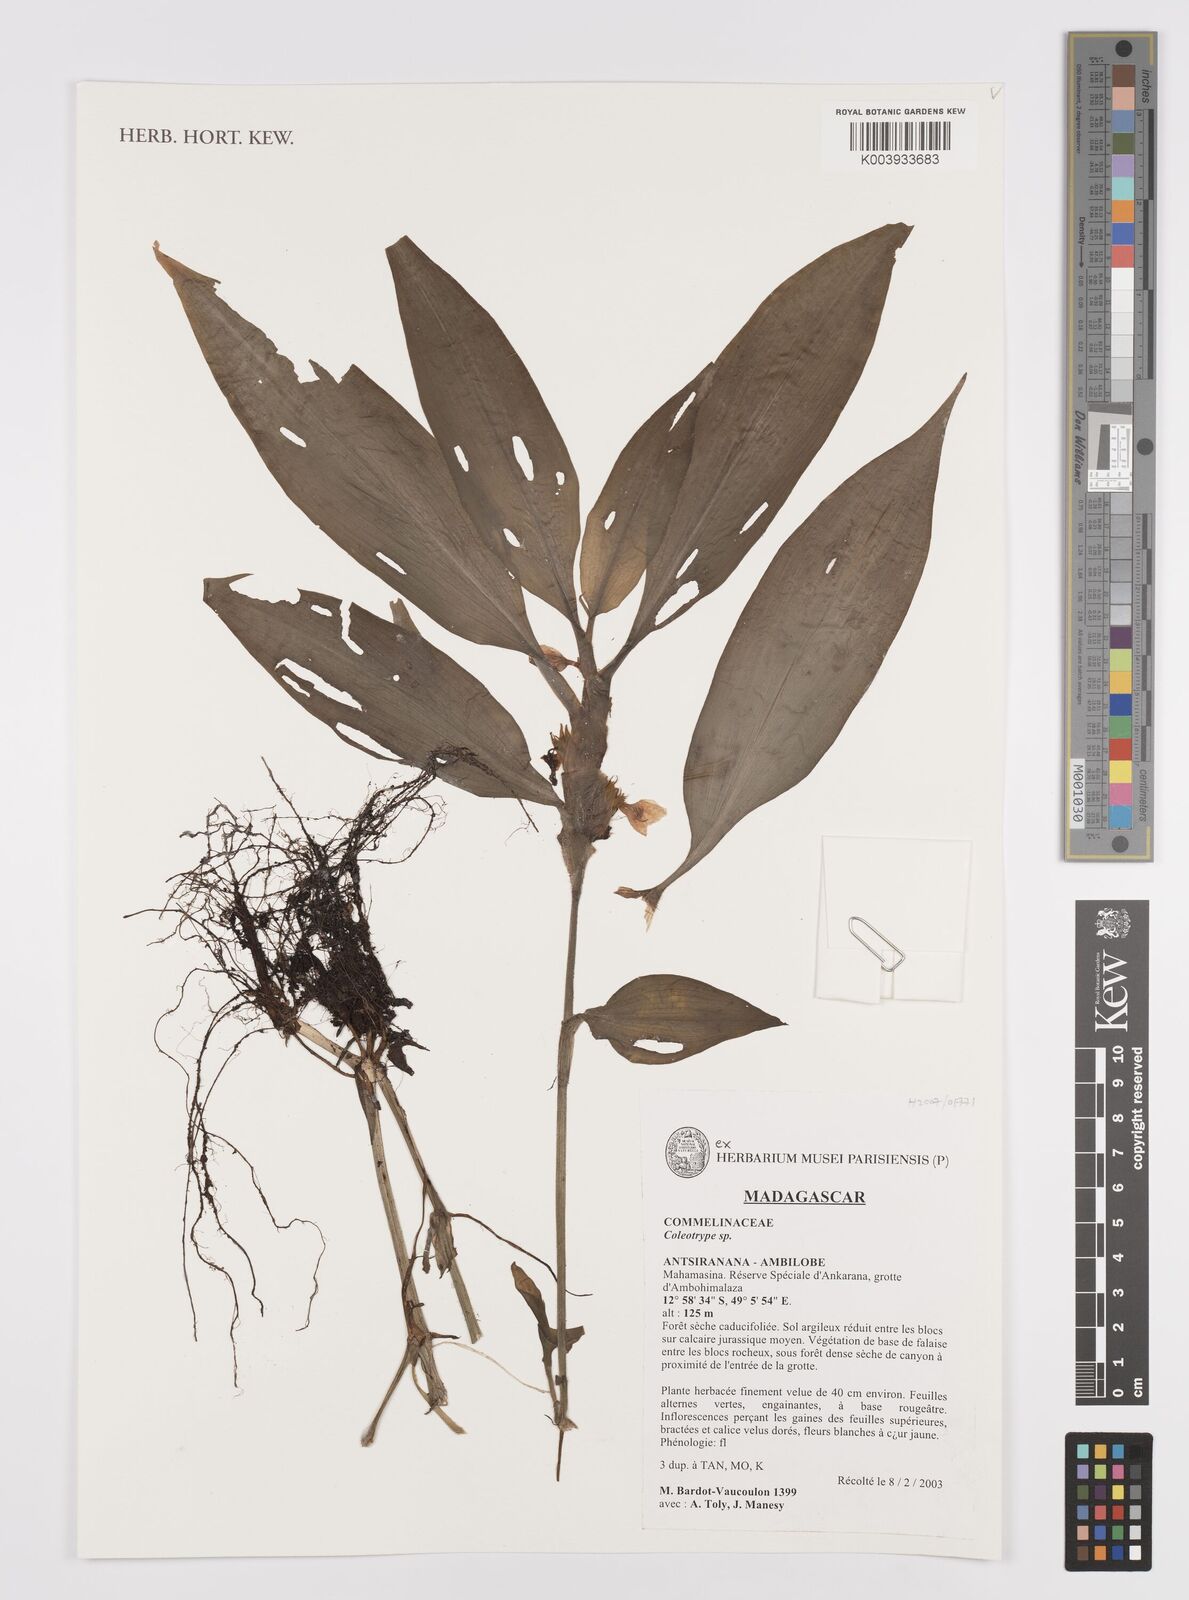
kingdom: Plantae
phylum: Tracheophyta
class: Liliopsida
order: Commelinales
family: Commelinaceae
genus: Coleotrype
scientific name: Coleotrype
